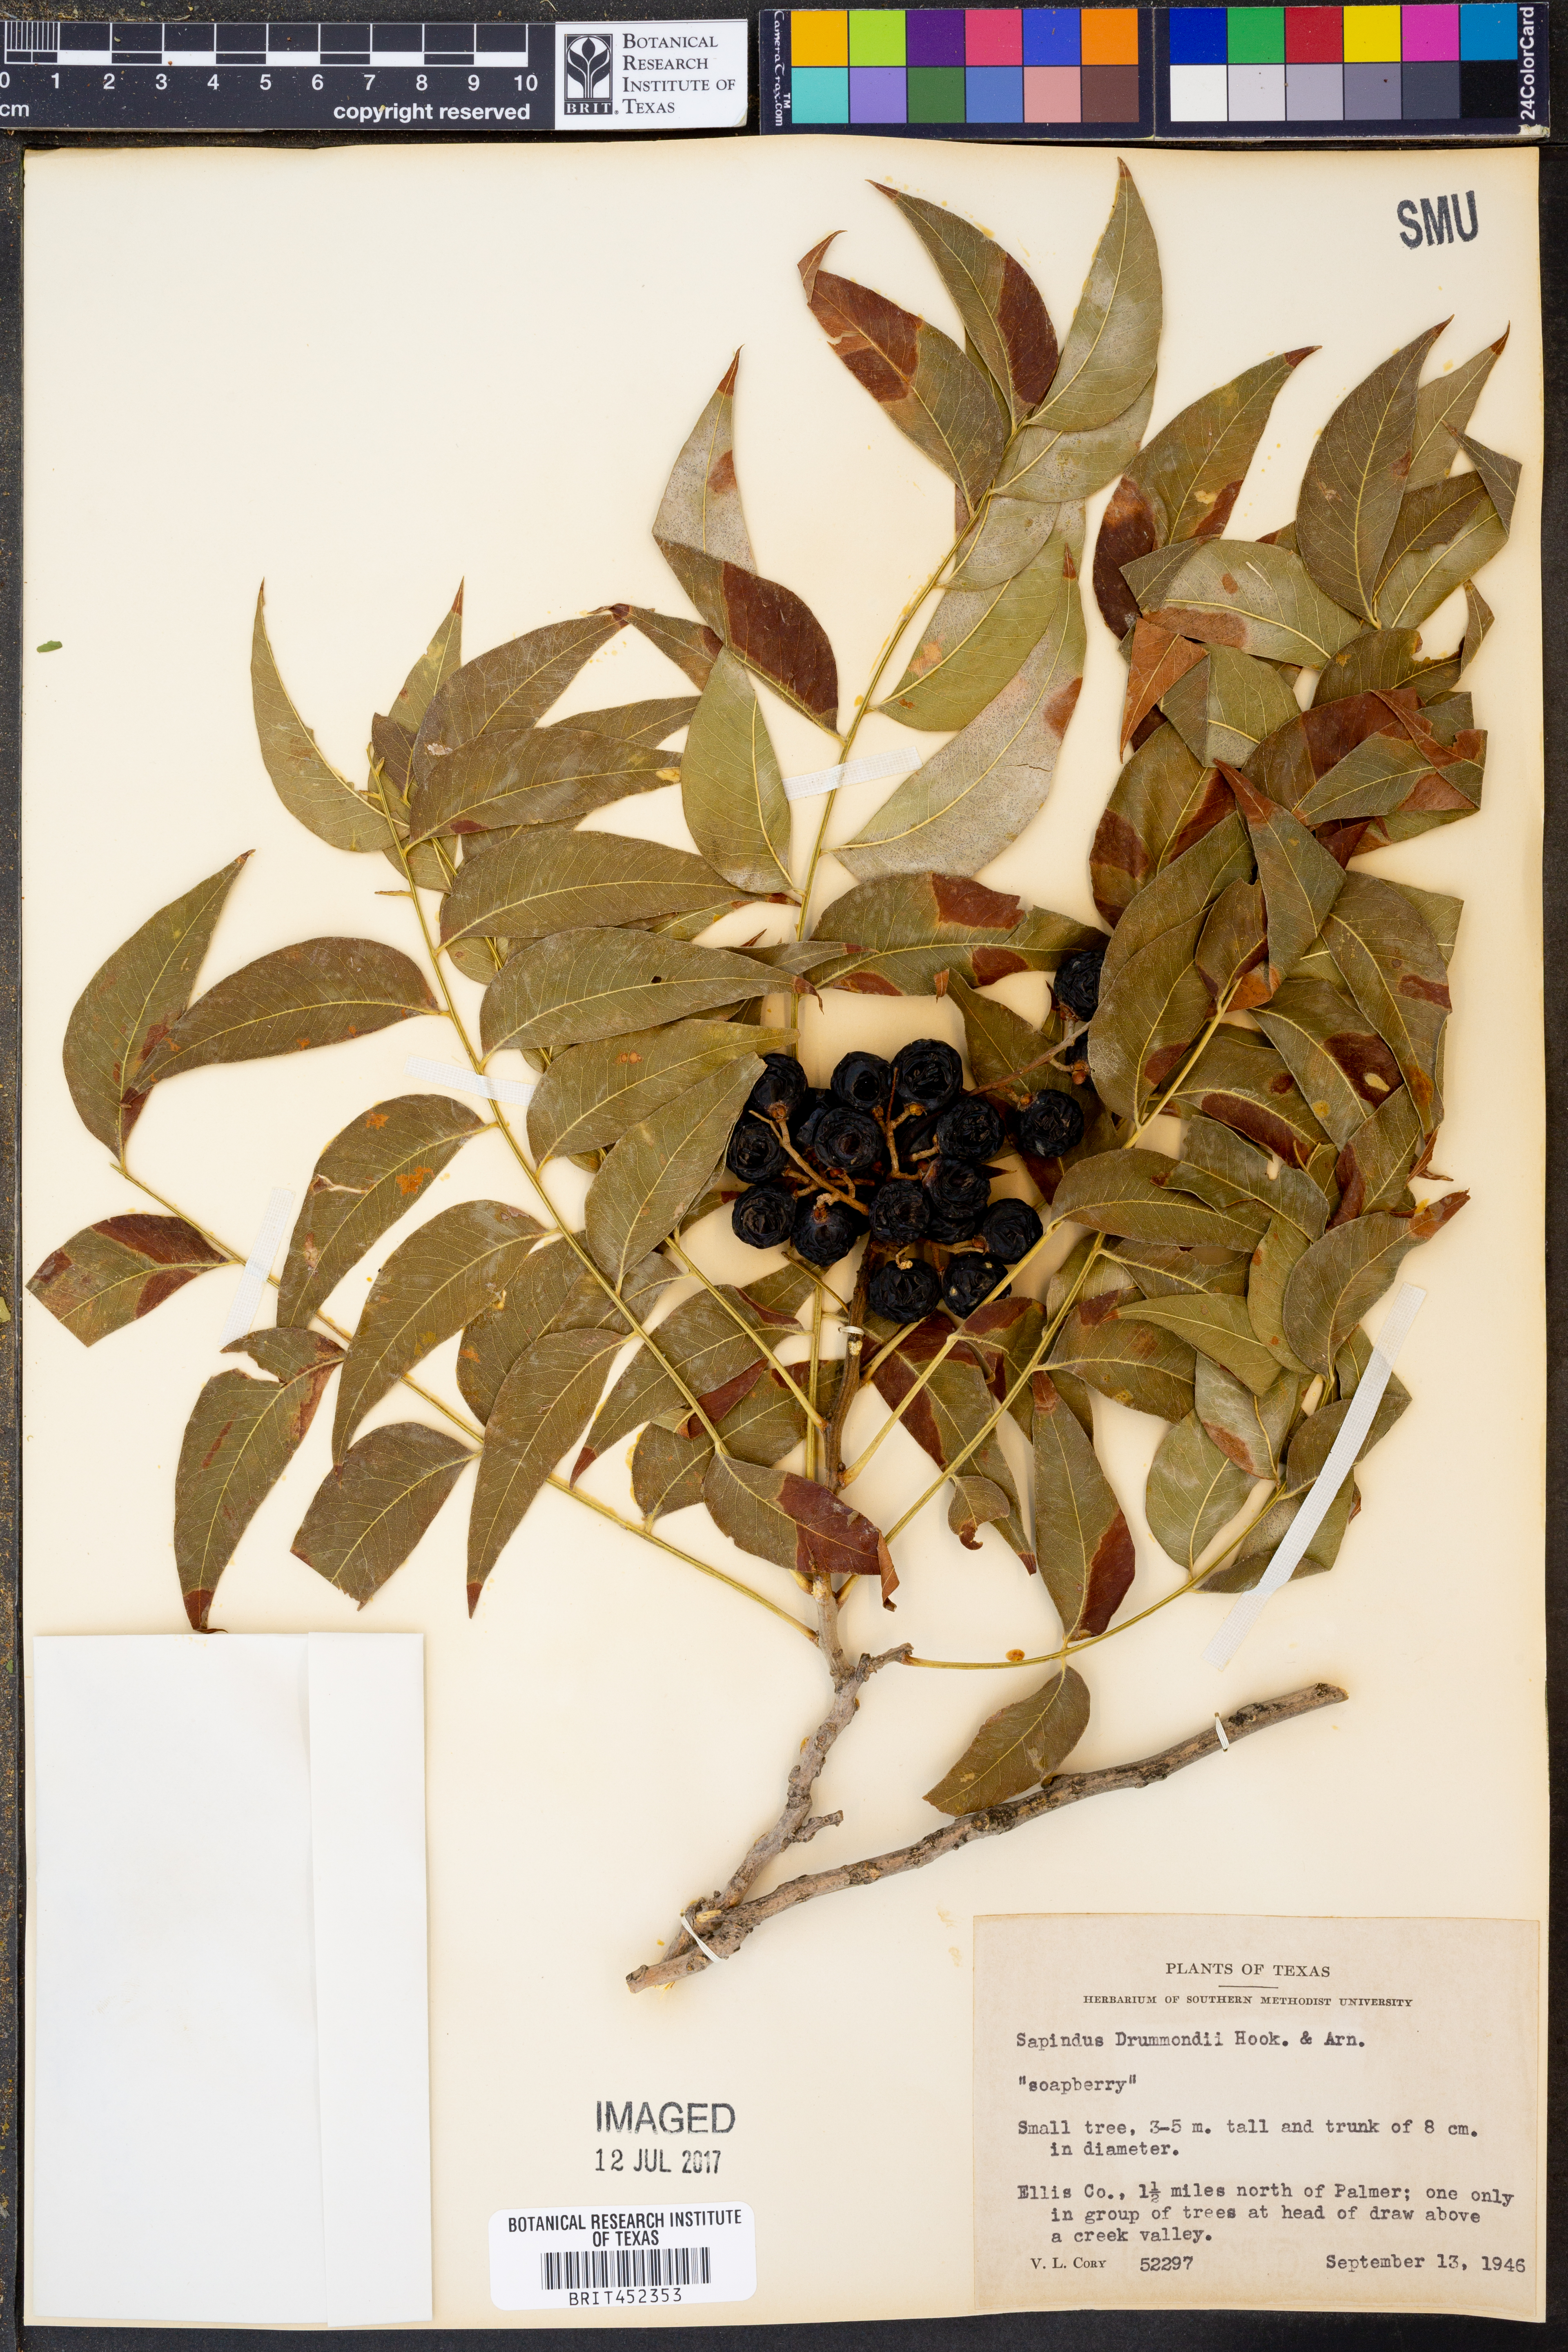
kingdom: Plantae
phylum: Tracheophyta
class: Magnoliopsida
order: Sapindales
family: Sapindaceae
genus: Sapindus
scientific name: Sapindus drummondii
